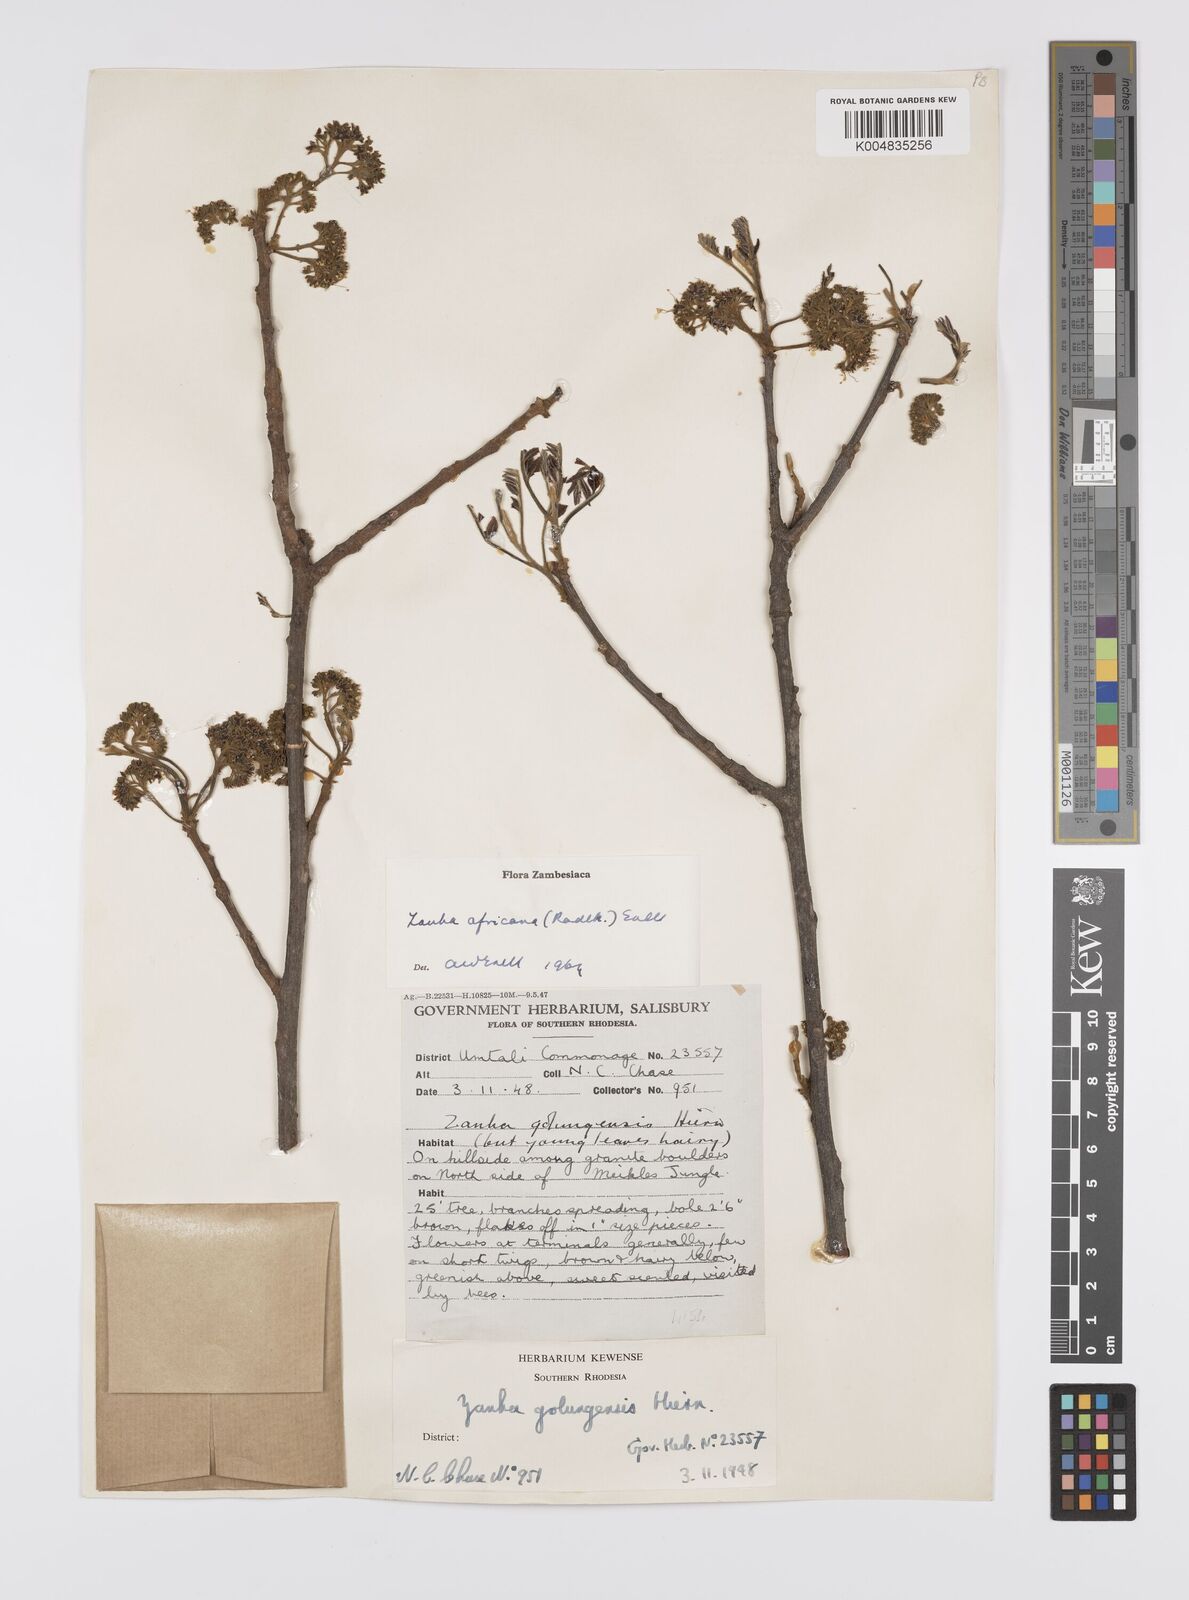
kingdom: Plantae
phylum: Tracheophyta
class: Magnoliopsida
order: Sapindales
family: Sapindaceae
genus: Zanha
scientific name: Zanha golungensis
